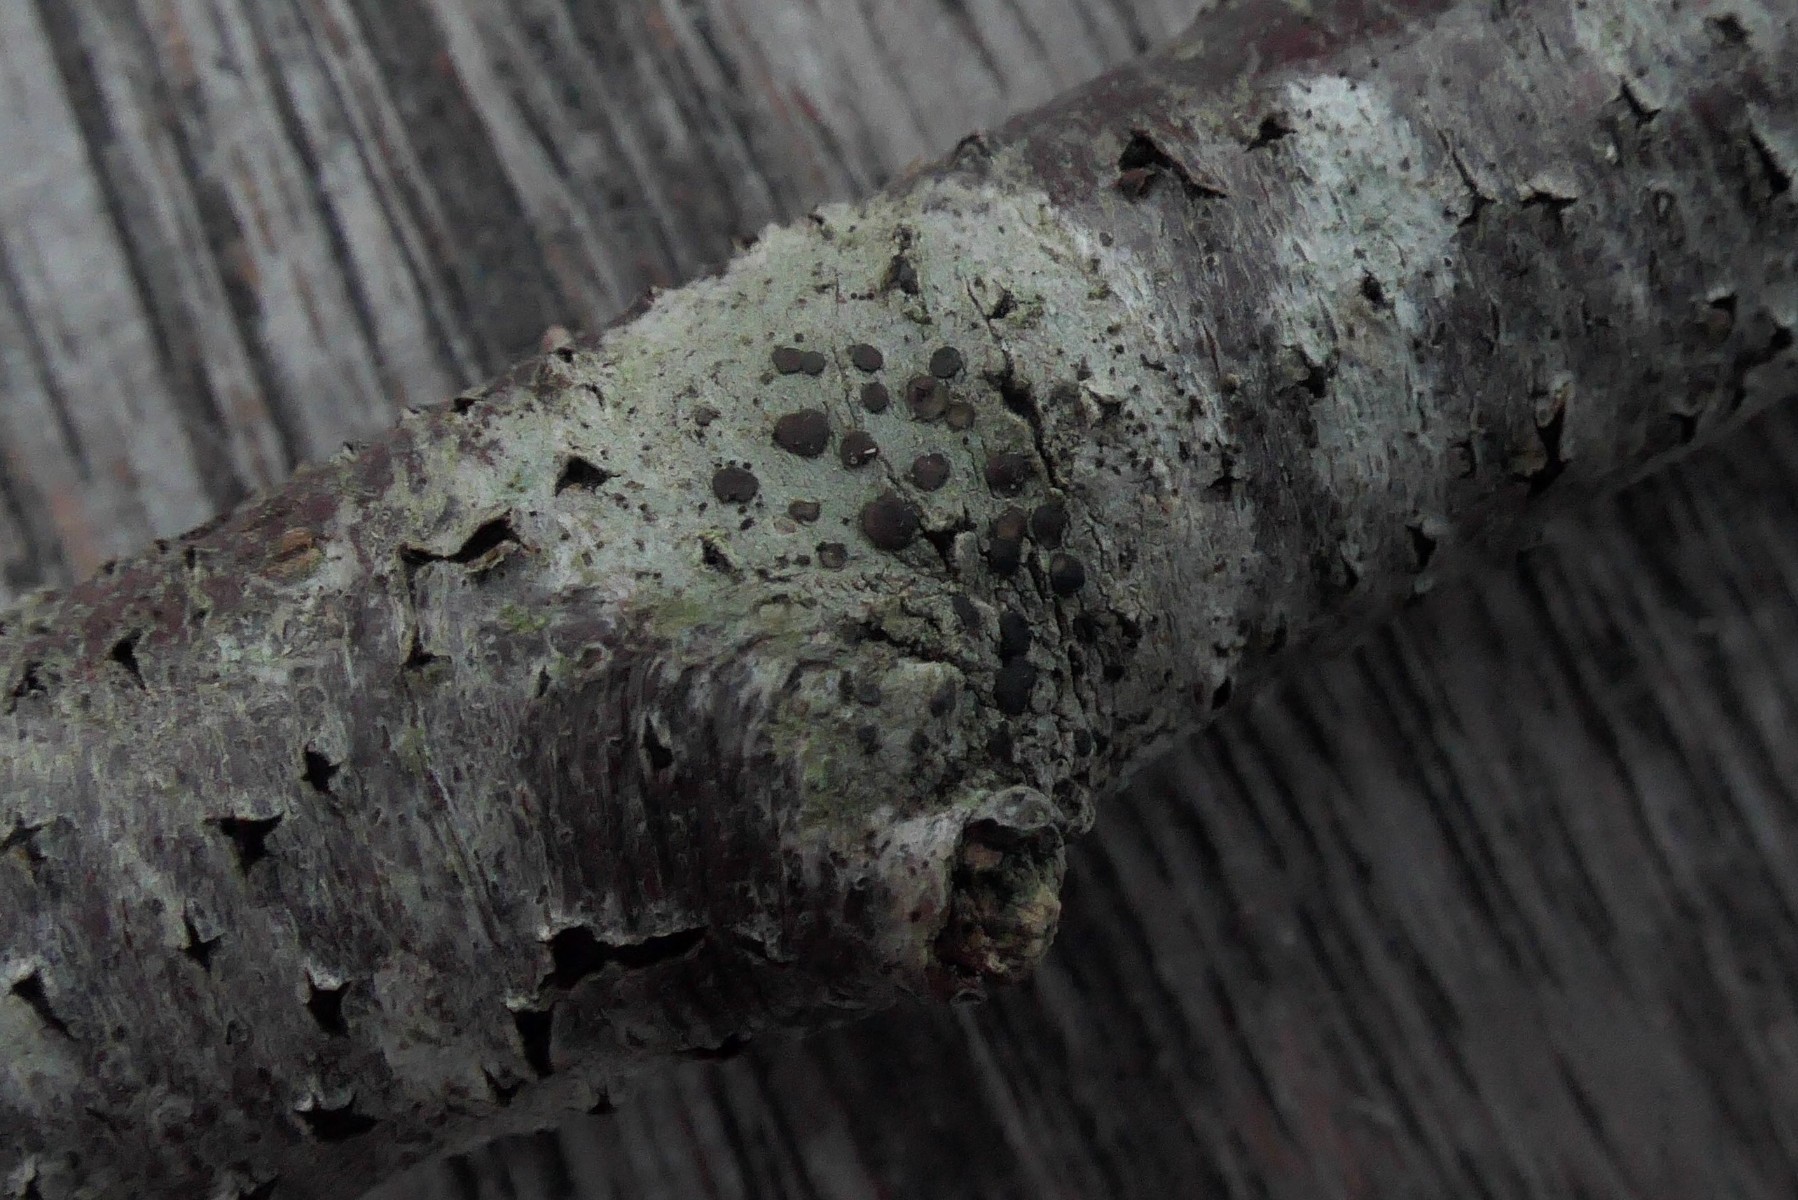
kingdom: Fungi
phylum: Ascomycota
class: Lecanoromycetes
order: Lecanorales
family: Lecanoraceae
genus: Lecidella
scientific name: Lecidella elaeochroma
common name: grågrøn skivelav
